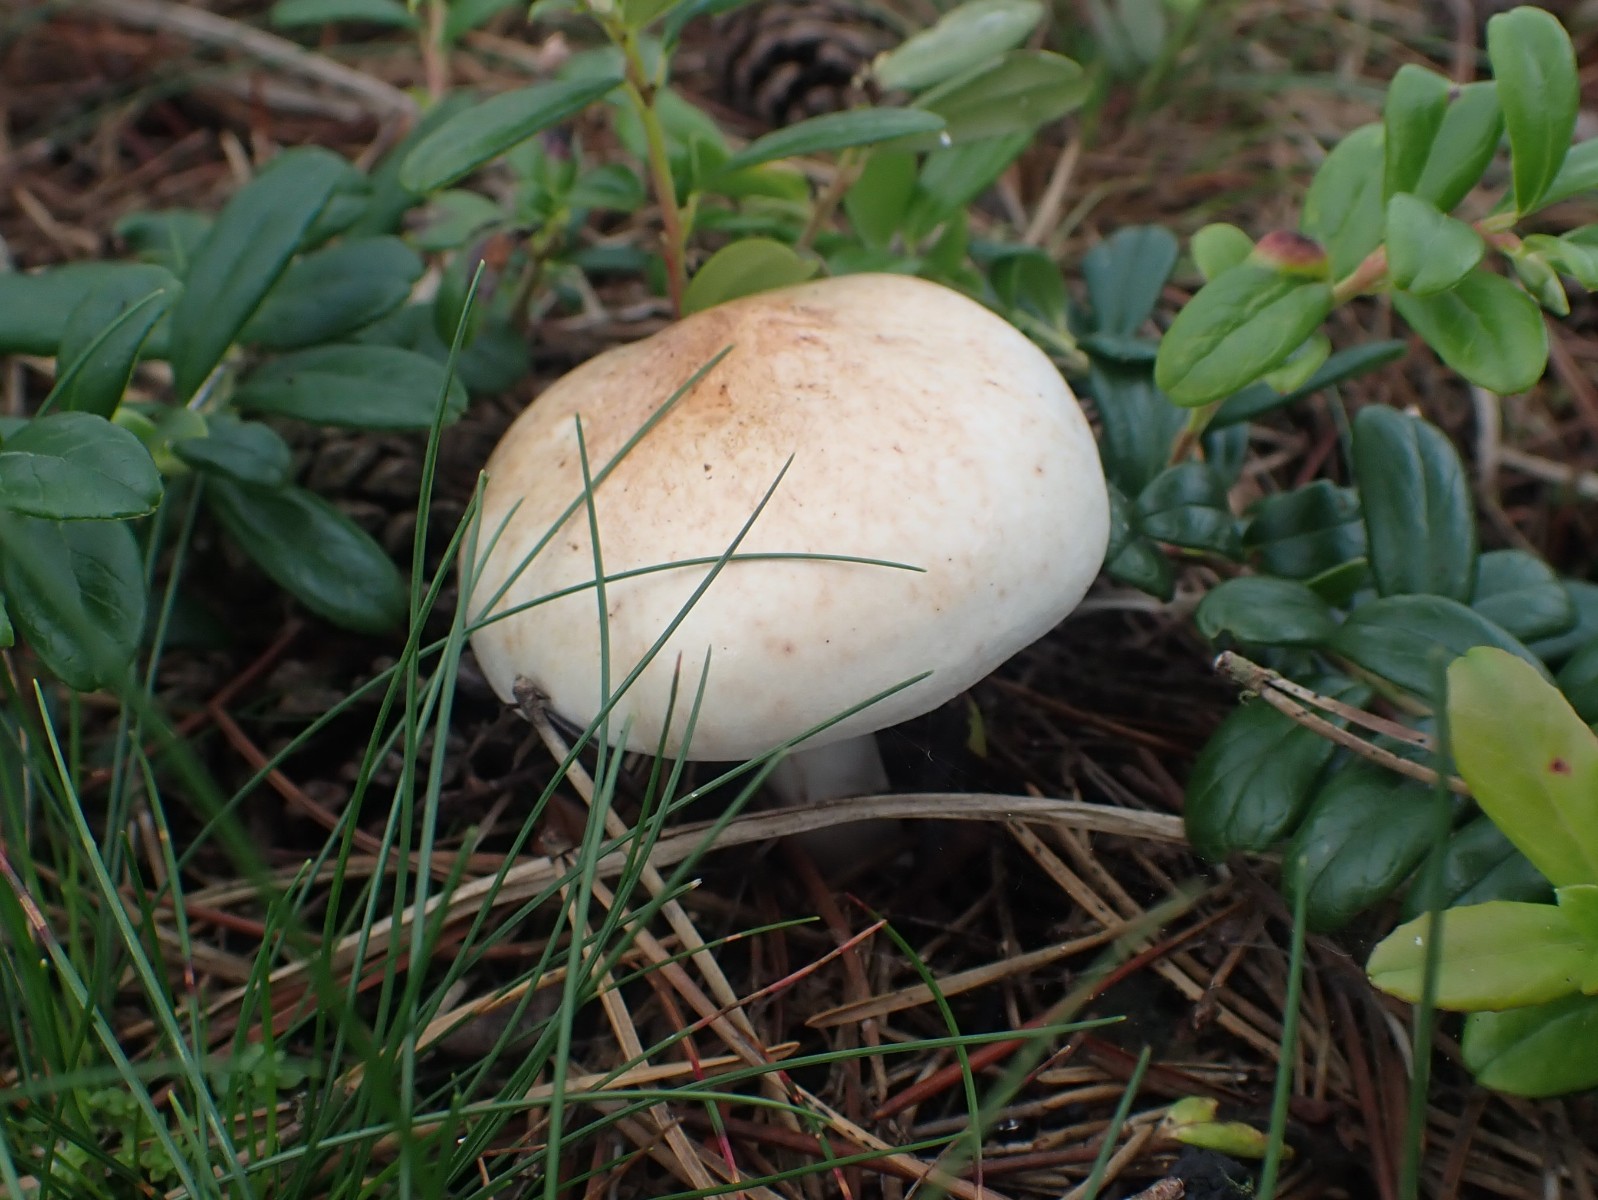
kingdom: Fungi
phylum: Basidiomycota
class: Agaricomycetes
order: Agaricales
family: Omphalotaceae
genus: Rhodocollybia
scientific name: Rhodocollybia maculata
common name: plettet fladhat
